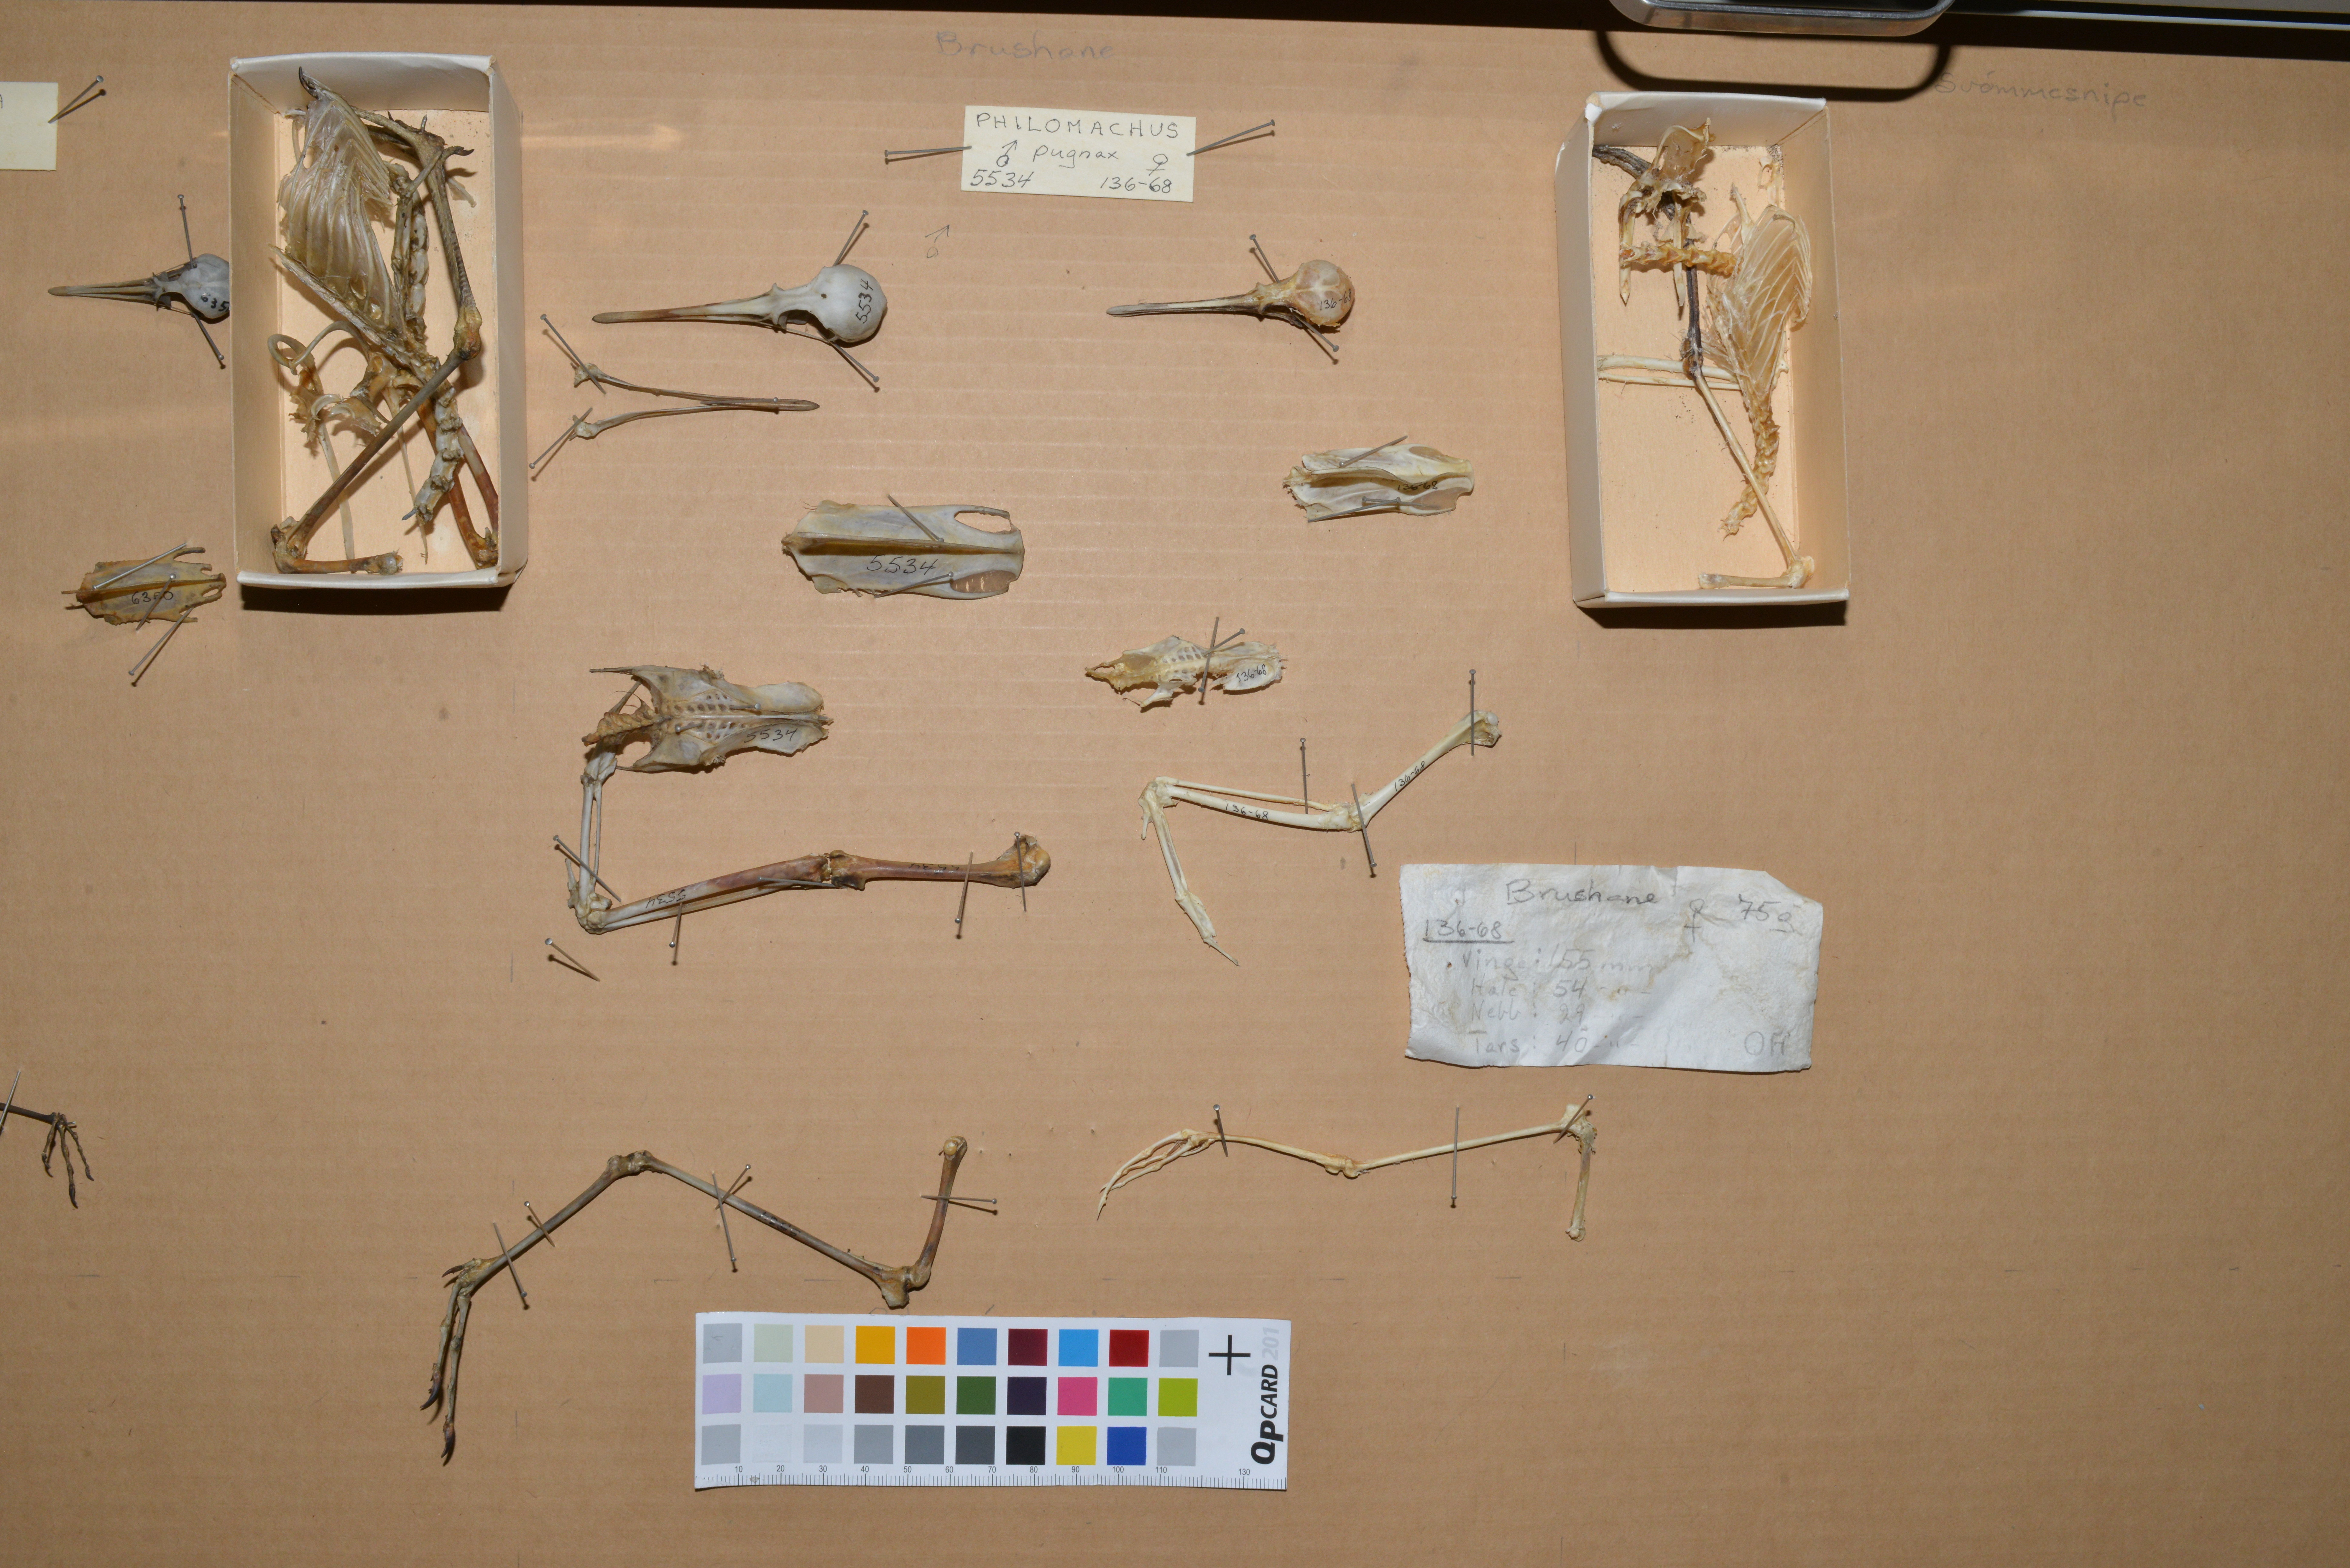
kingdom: Animalia
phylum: Chordata
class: Aves
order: Charadriiformes
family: Scolopacidae
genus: Calidris
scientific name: Calidris pugnax
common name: Ruff
